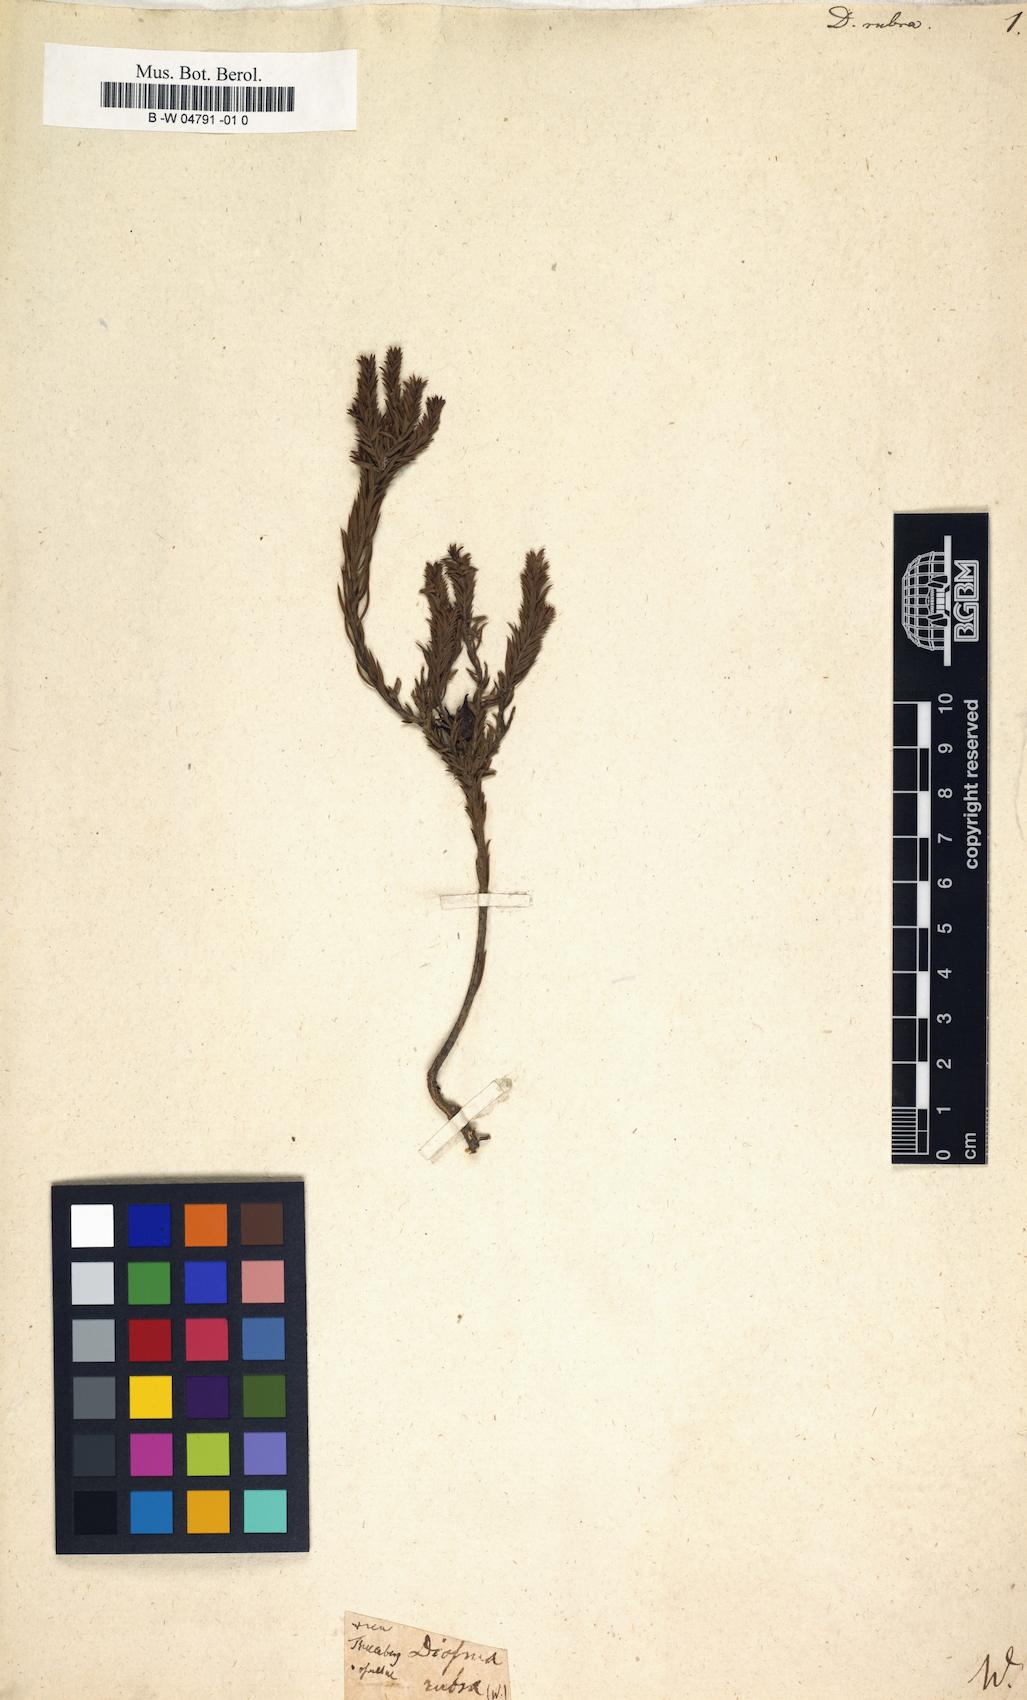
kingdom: Plantae
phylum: Tracheophyta
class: Magnoliopsida
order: Sapindales
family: Rutaceae
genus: Diosma
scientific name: Diosma hirsuta
